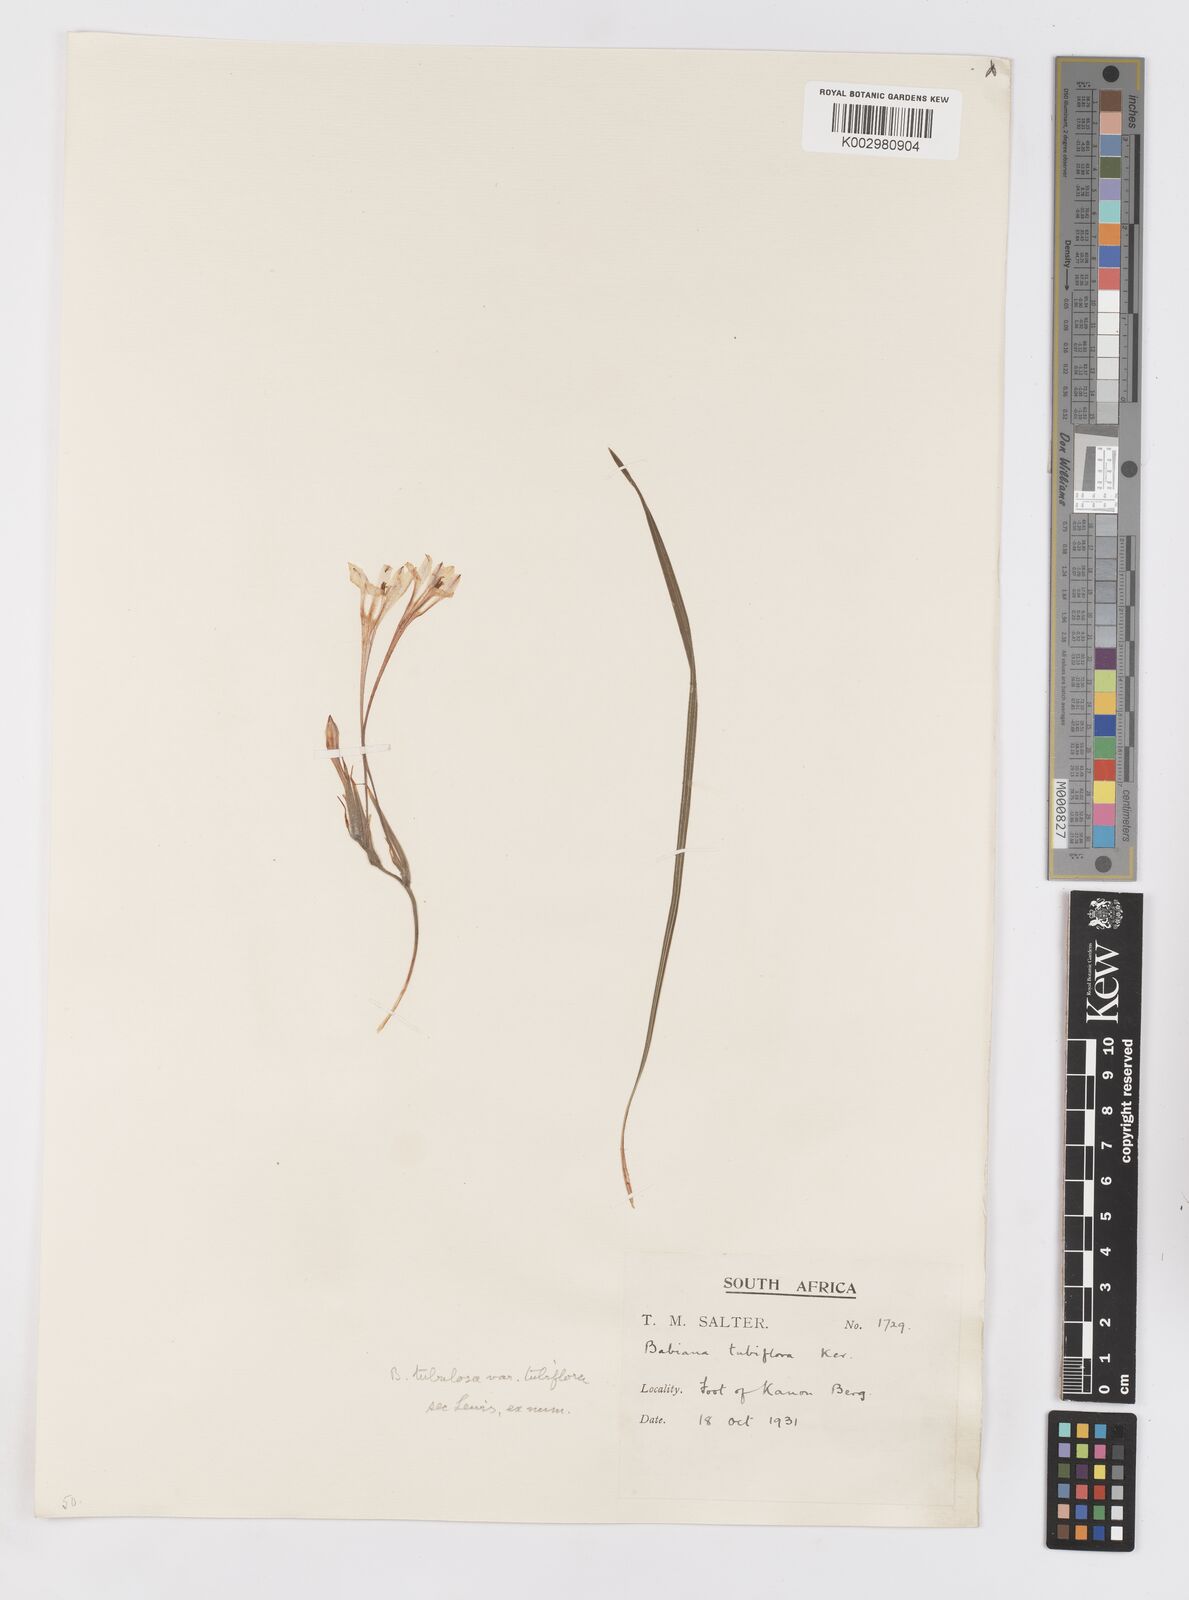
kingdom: Plantae
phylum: Tracheophyta
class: Liliopsida
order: Asparagales
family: Iridaceae
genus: Babiana
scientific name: Babiana tubiflora
